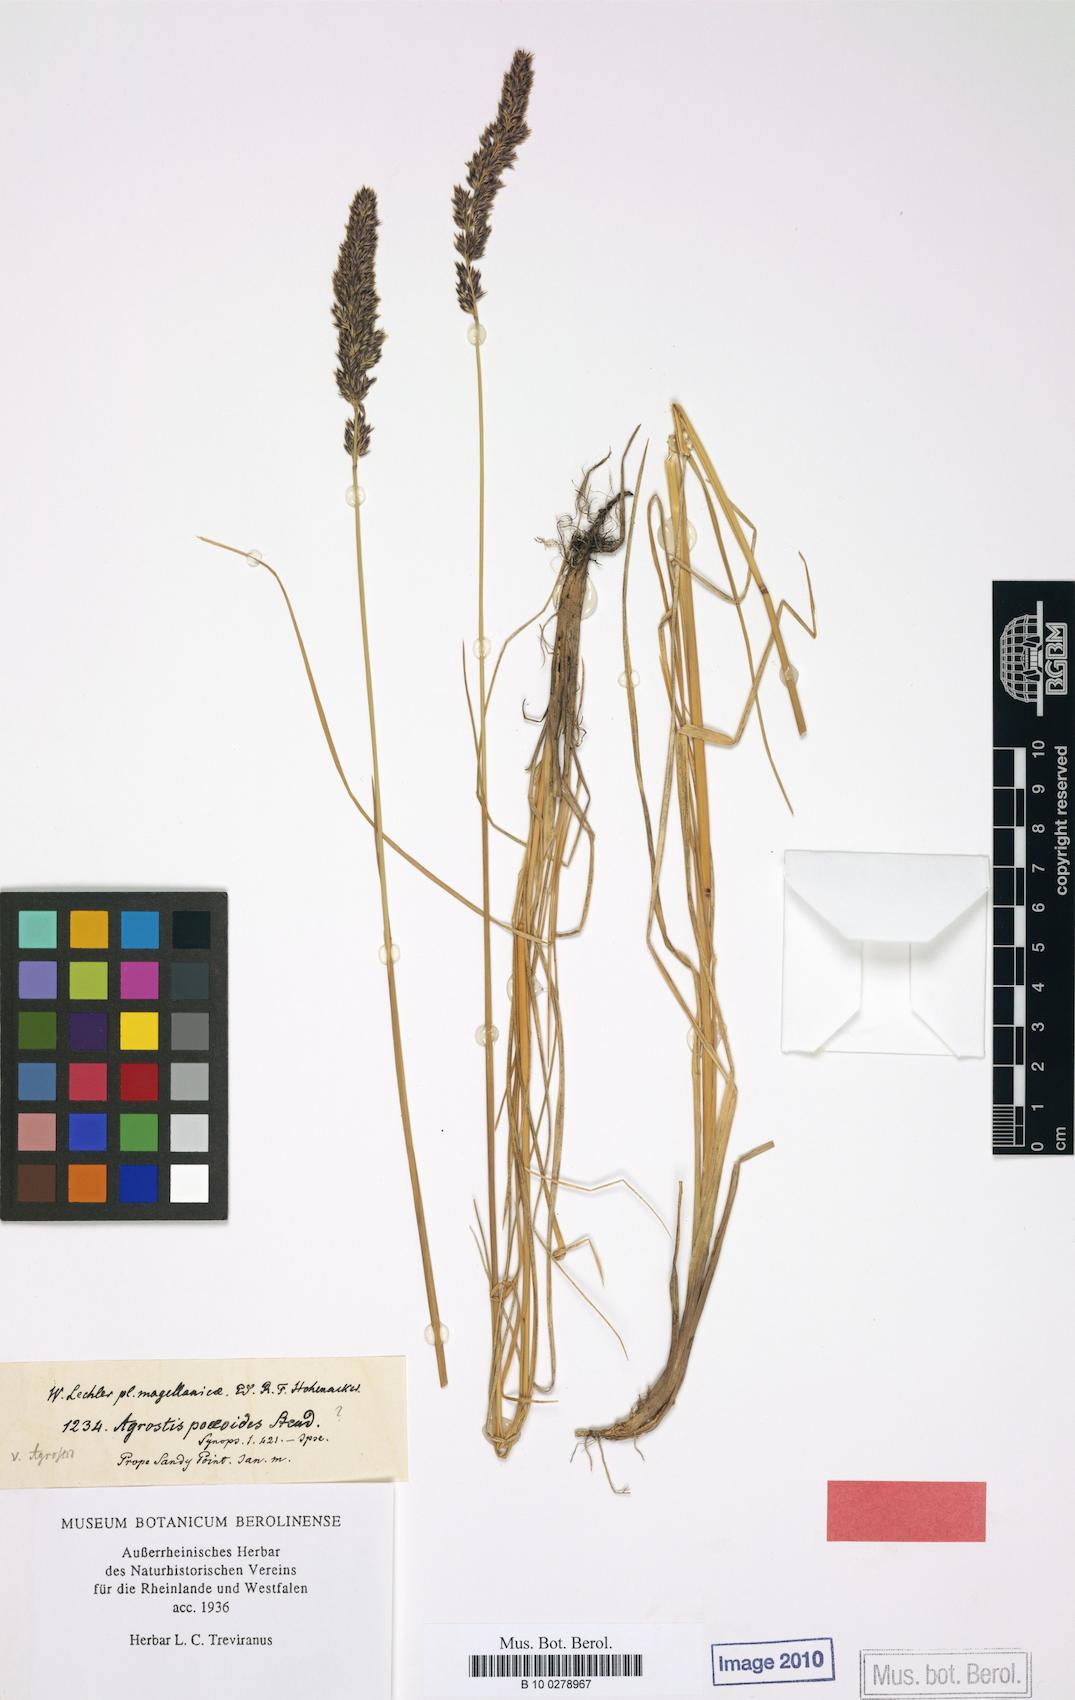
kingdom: Plantae
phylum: Tracheophyta
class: Liliopsida
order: Poales
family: Poaceae
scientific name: Poaceae
